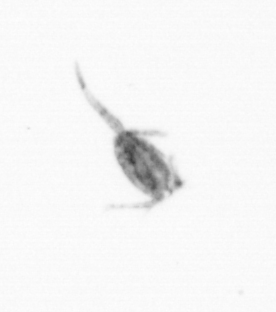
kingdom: Animalia
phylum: Arthropoda
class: Copepoda
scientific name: Copepoda
